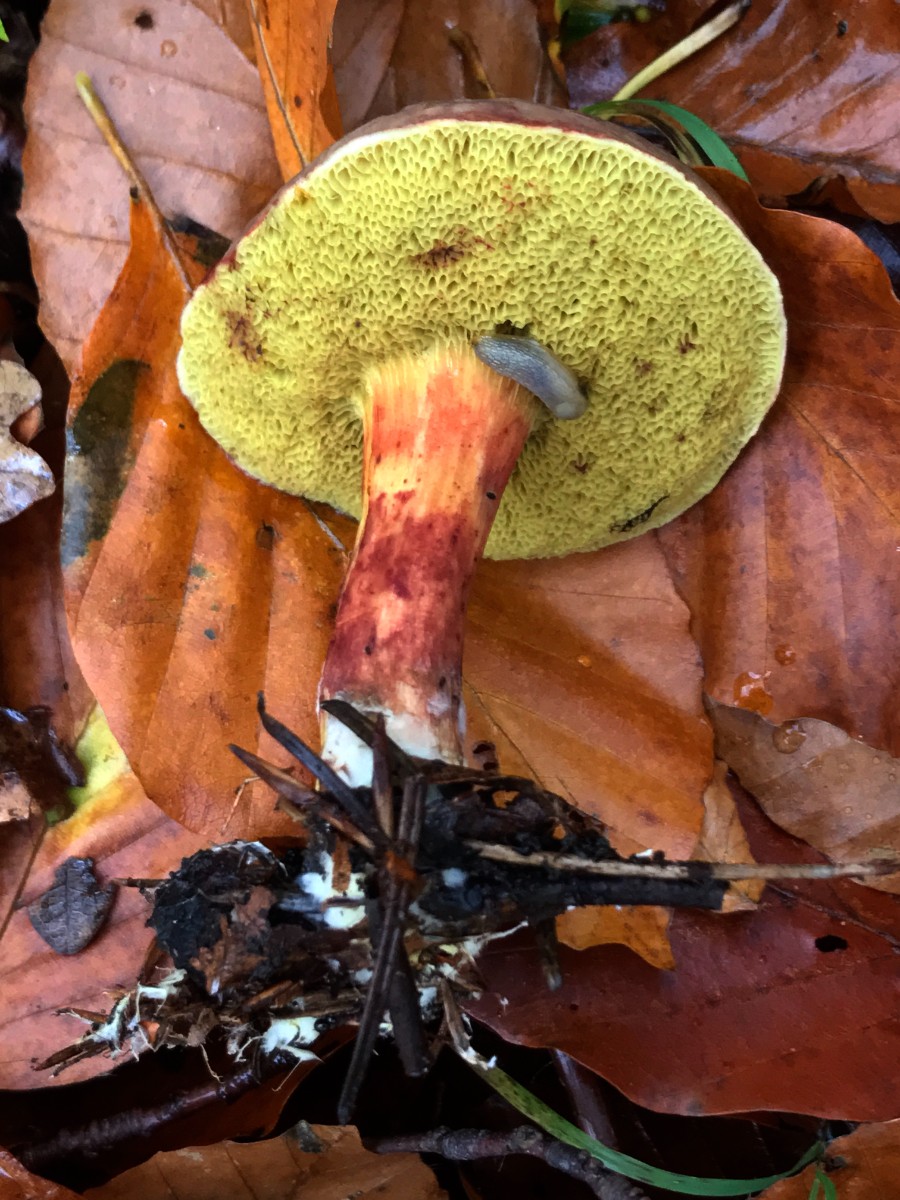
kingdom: Fungi
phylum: Basidiomycota
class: Agaricomycetes
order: Boletales
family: Boletaceae
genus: Xerocomellus
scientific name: Xerocomellus pruinatus
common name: dugget rørhat
